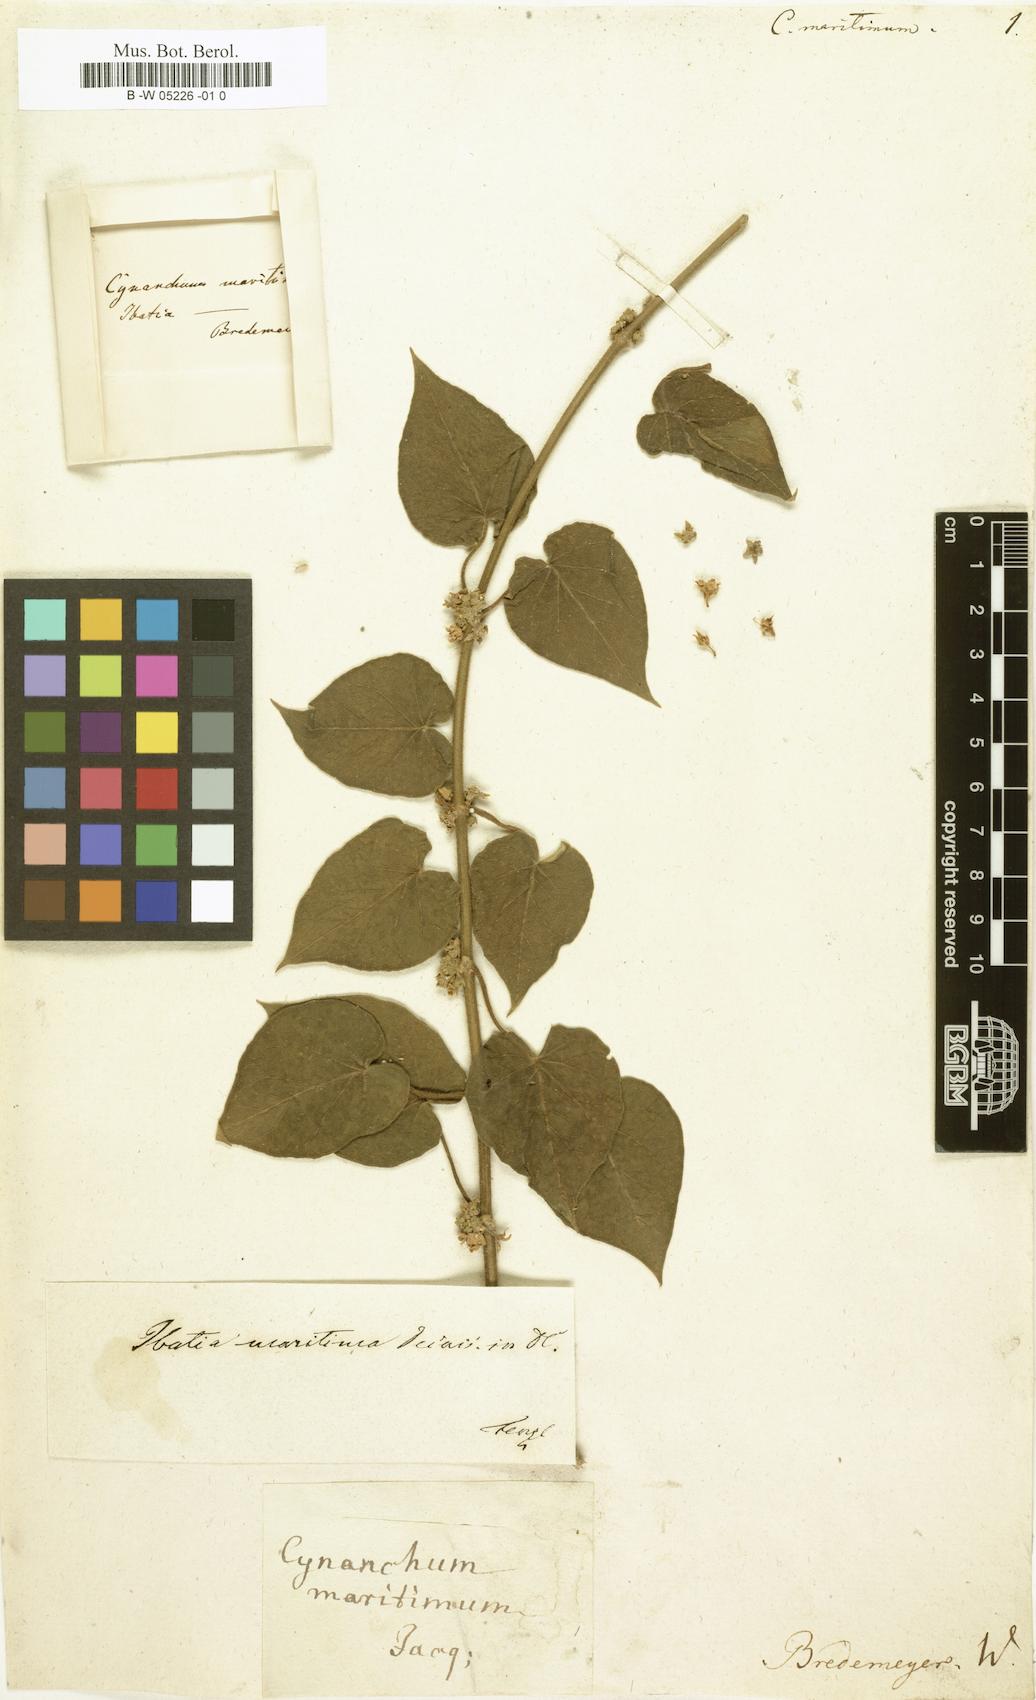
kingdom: Plantae
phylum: Tracheophyta
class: Magnoliopsida
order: Gentianales
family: Apocynaceae
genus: Ibatia
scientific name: Ibatia maritima
